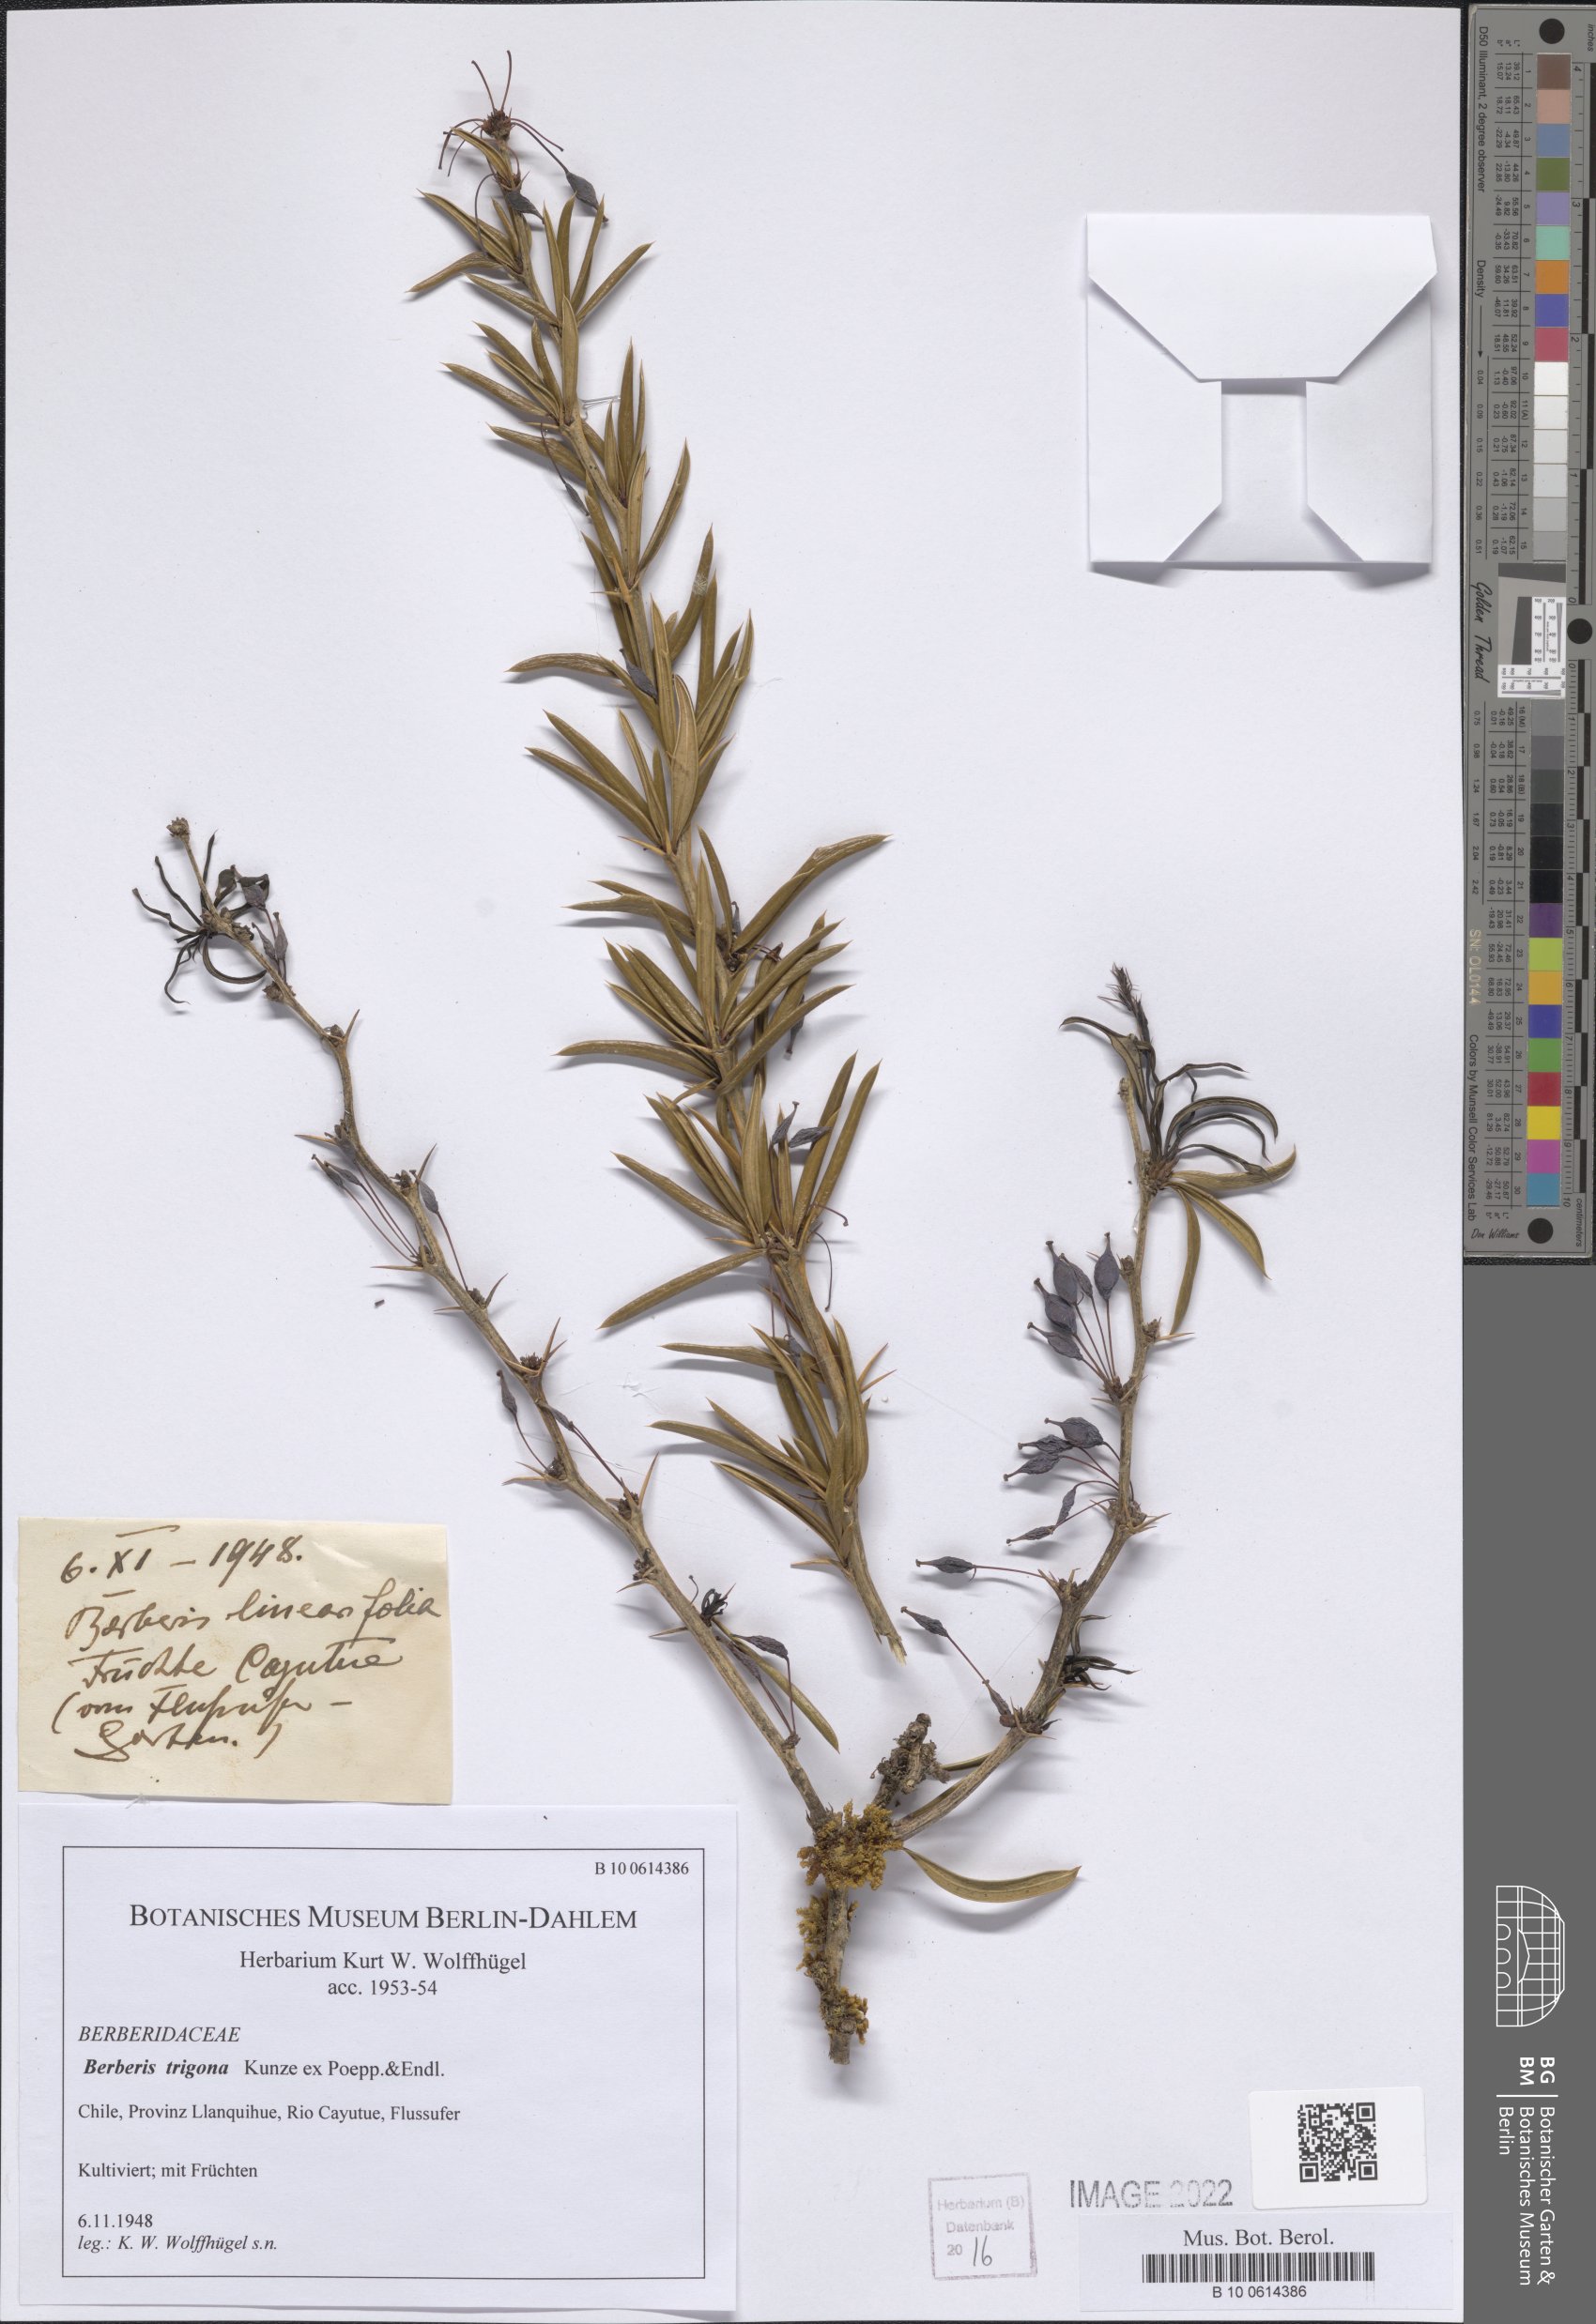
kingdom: Plantae
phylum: Tracheophyta
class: Magnoliopsida
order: Ranunculales
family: Berberidaceae
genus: Berberis
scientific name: Berberis trigona
